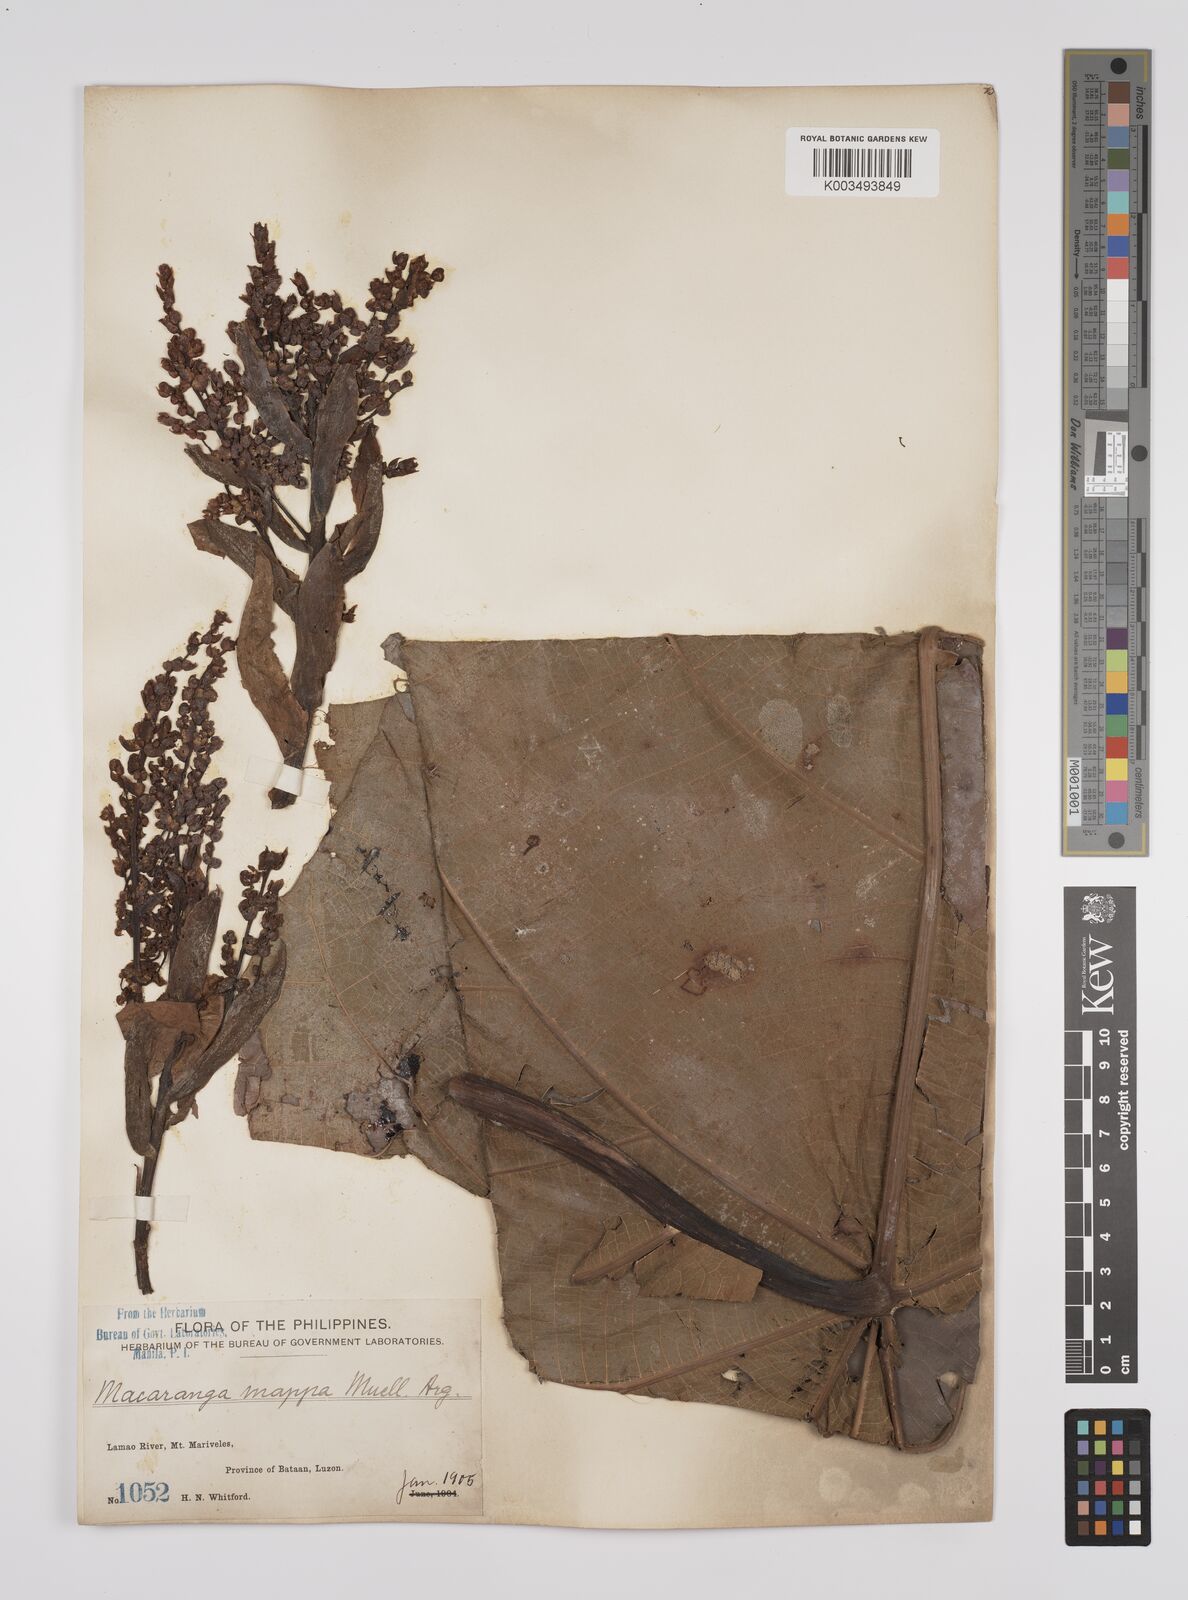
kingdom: Plantae
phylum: Tracheophyta
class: Magnoliopsida
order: Malpighiales
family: Euphorbiaceae
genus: Macaranga
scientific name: Macaranga grandifolia
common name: Coraltree
